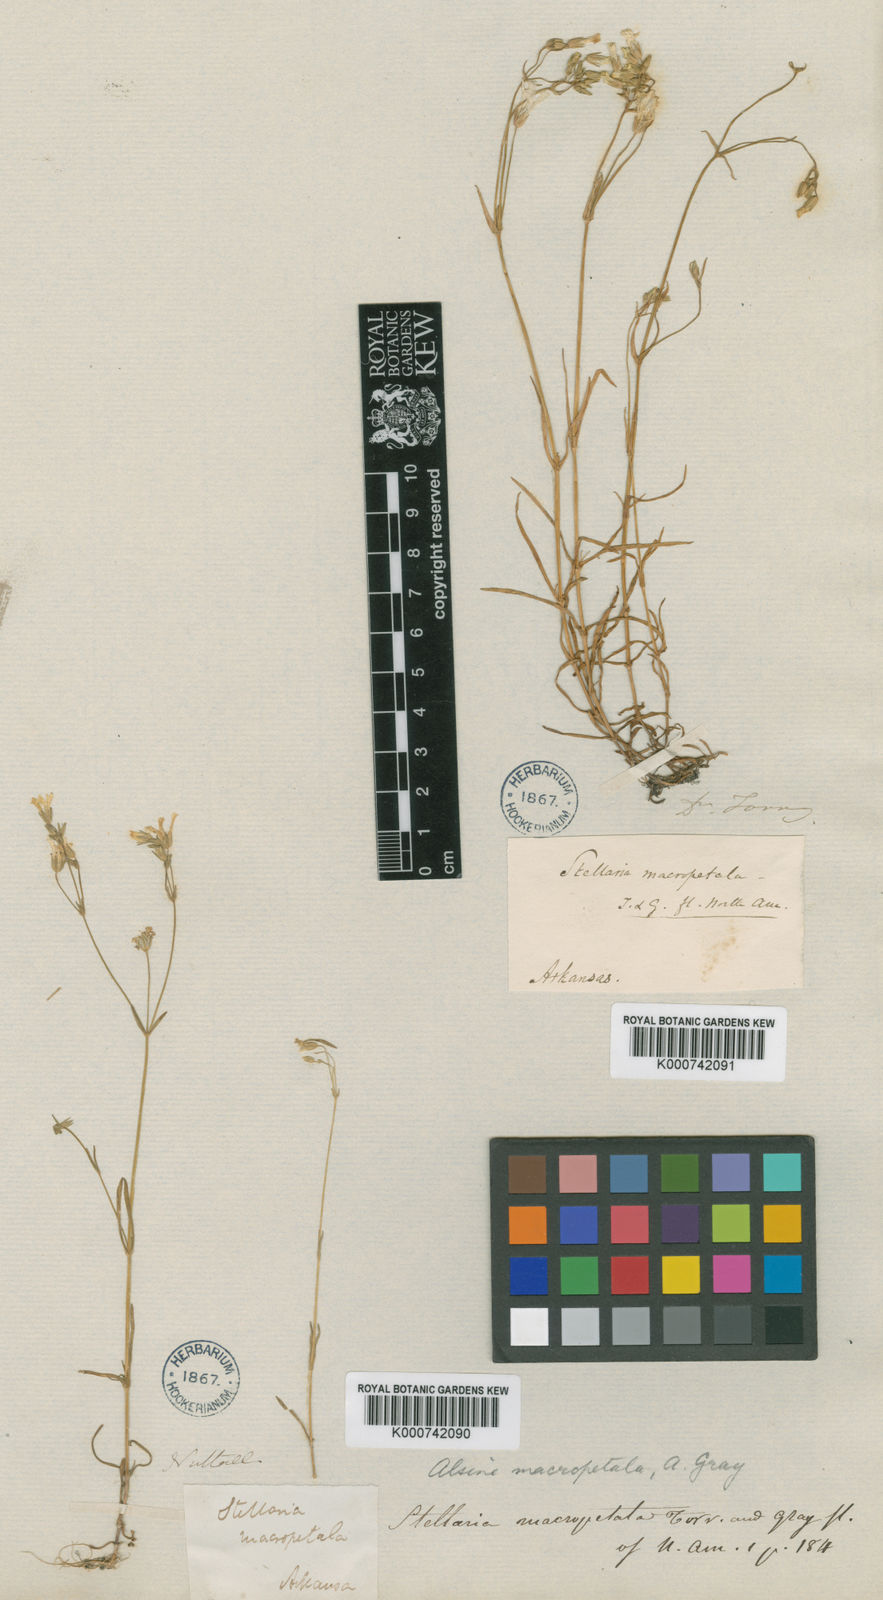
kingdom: Plantae
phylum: Tracheophyta
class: Magnoliopsida
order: Caryophyllales
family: Caryophyllaceae
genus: Mononeuria
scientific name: Mononeuria patula
